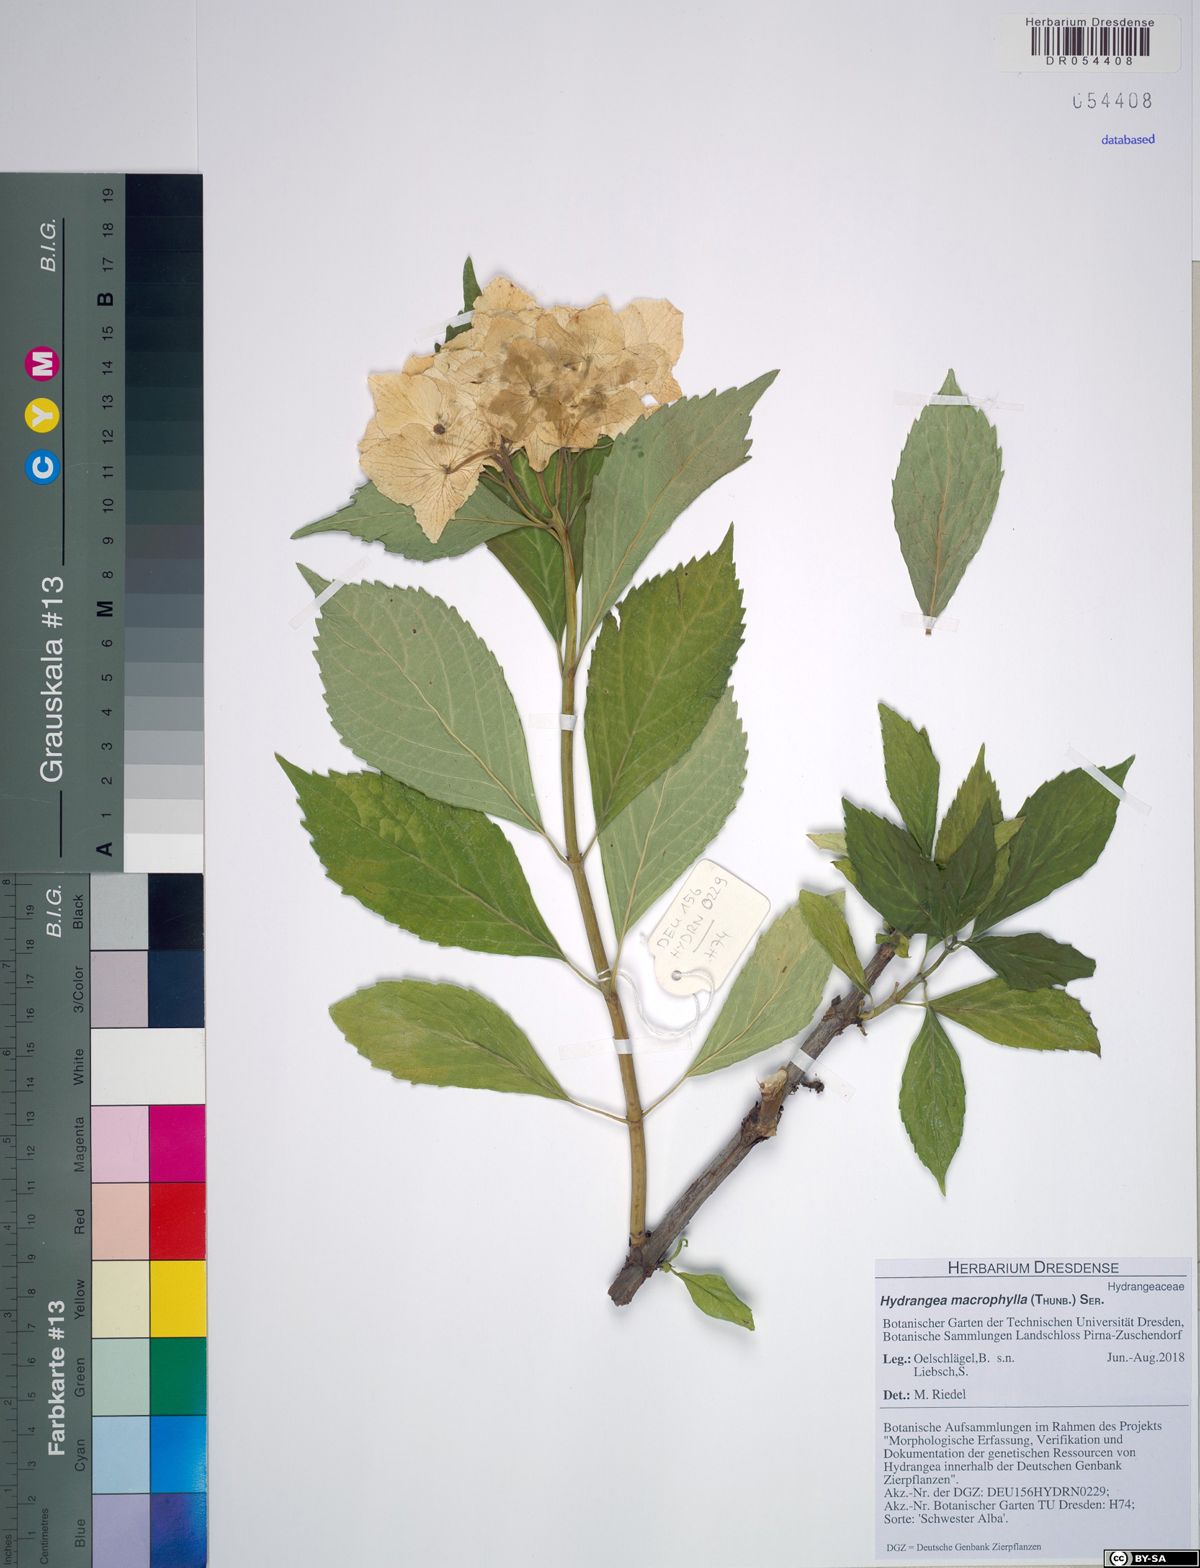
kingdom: Plantae
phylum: Tracheophyta
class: Magnoliopsida
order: Cornales
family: Hydrangeaceae
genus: Hydrangea
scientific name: Hydrangea macrophylla
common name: Hydrangea
